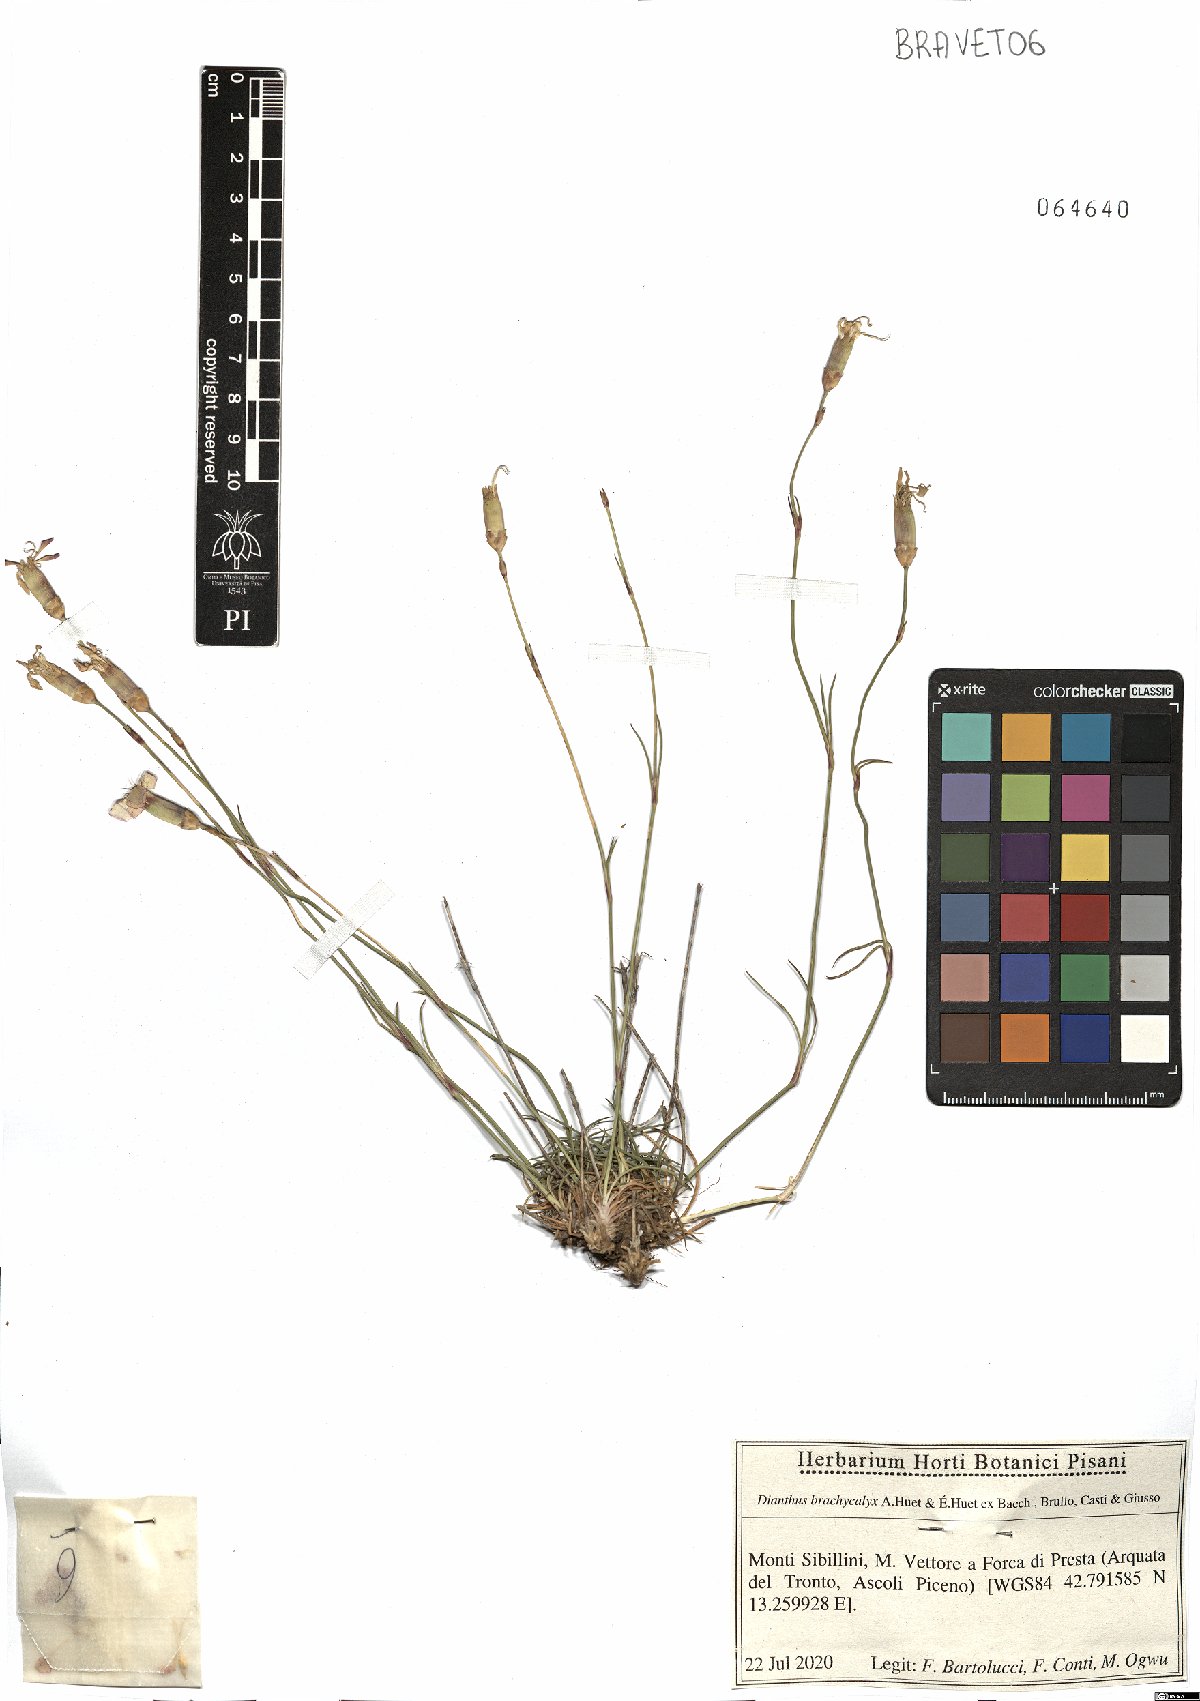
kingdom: Plantae
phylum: Tracheophyta
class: Magnoliopsida
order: Caryophyllales
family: Caryophyllaceae
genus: Dianthus
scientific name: Dianthus brachycalyx
